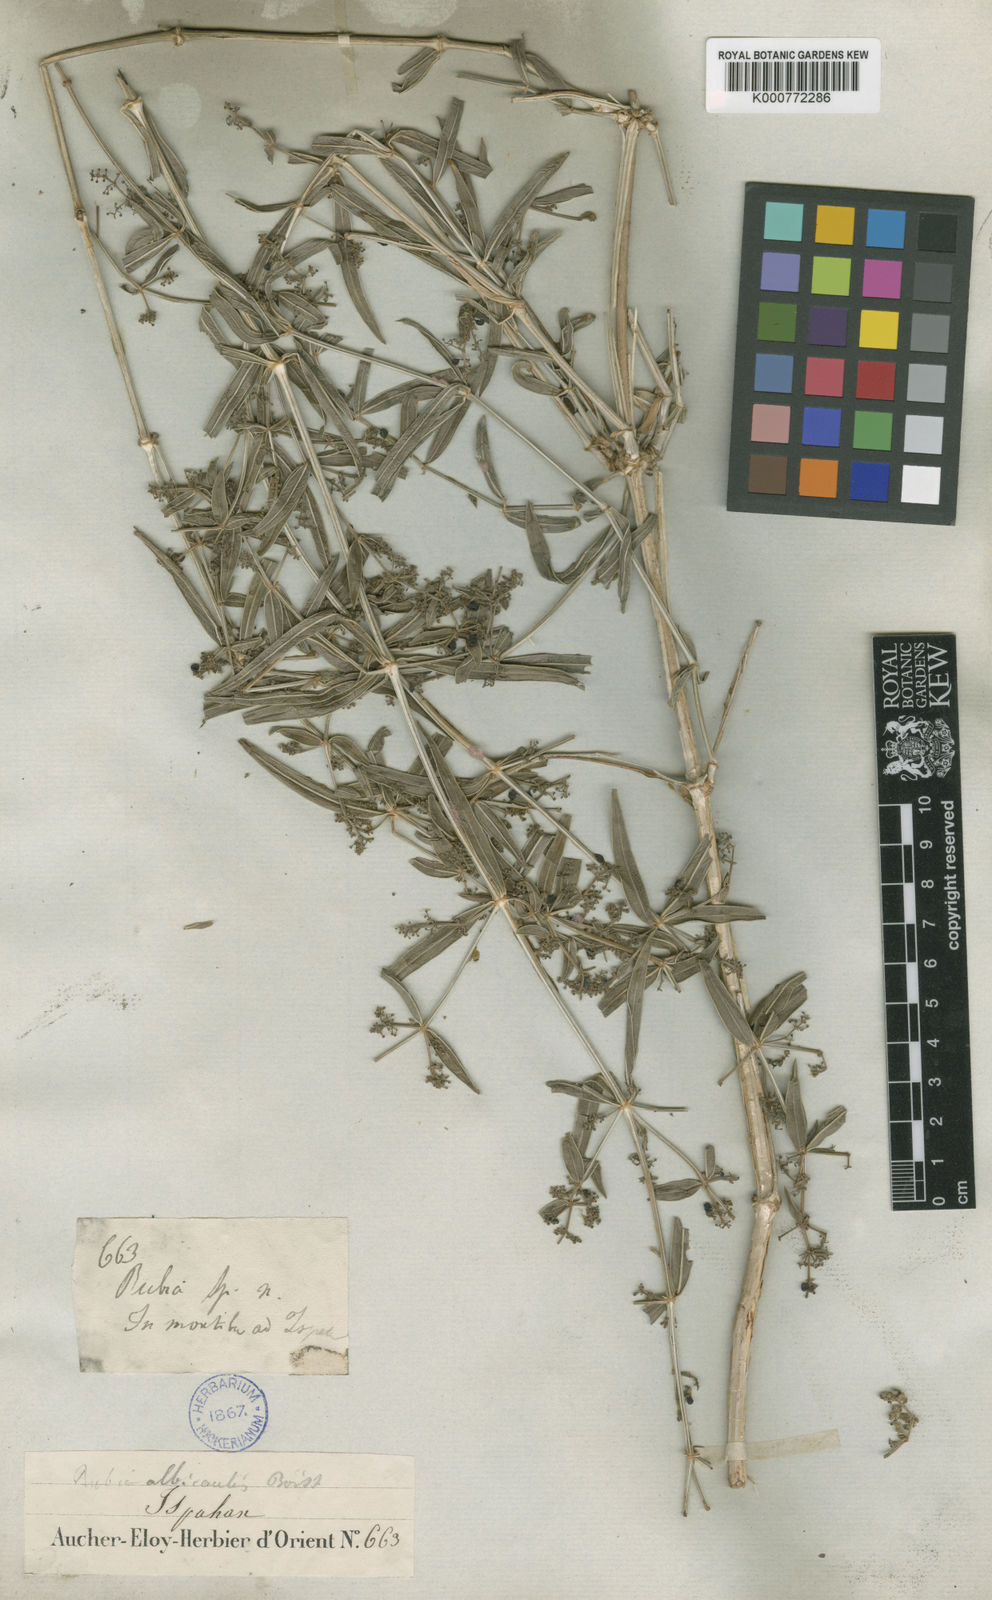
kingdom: Plantae
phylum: Tracheophyta
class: Magnoliopsida
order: Gentianales
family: Rubiaceae
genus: Rubia
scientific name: Rubia albicaulis
